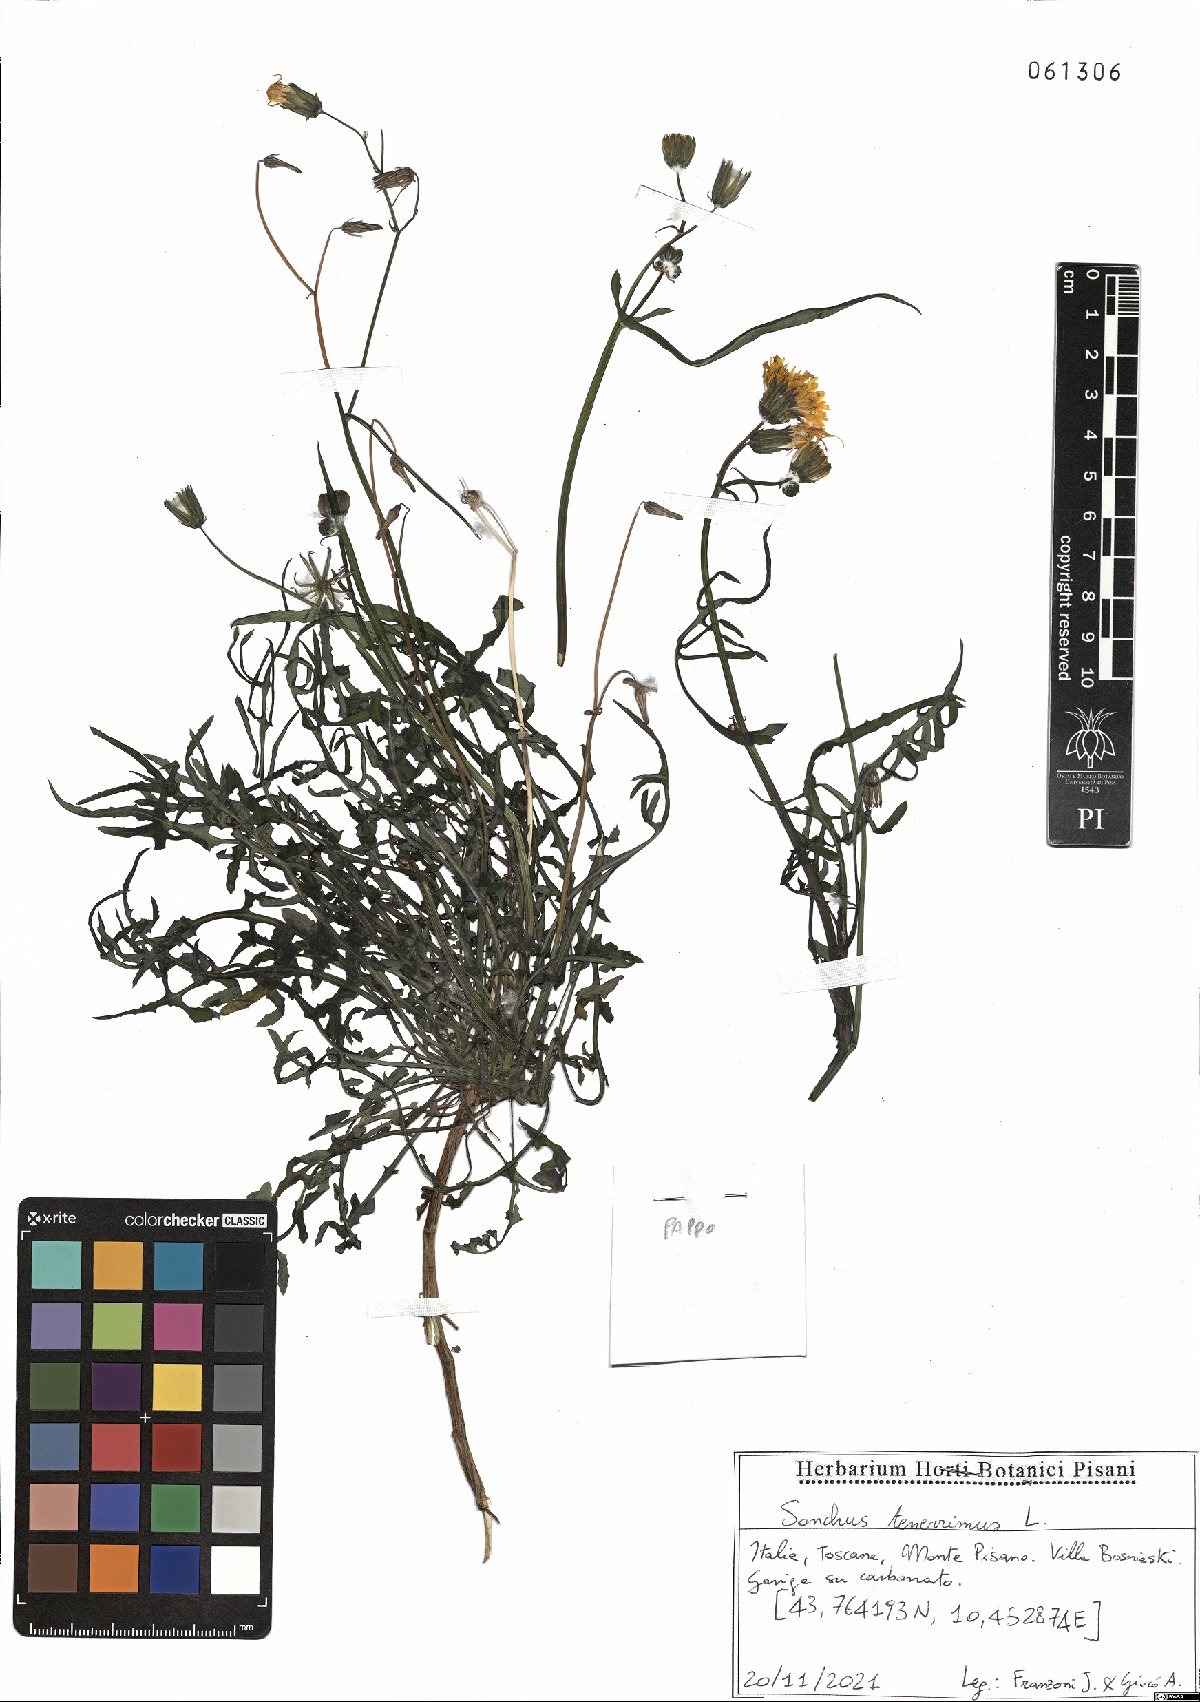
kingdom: Plantae
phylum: Tracheophyta
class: Magnoliopsida
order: Asterales
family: Asteraceae
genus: Sonchus
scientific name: Sonchus tenerrimus
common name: Clammy sowthistle
